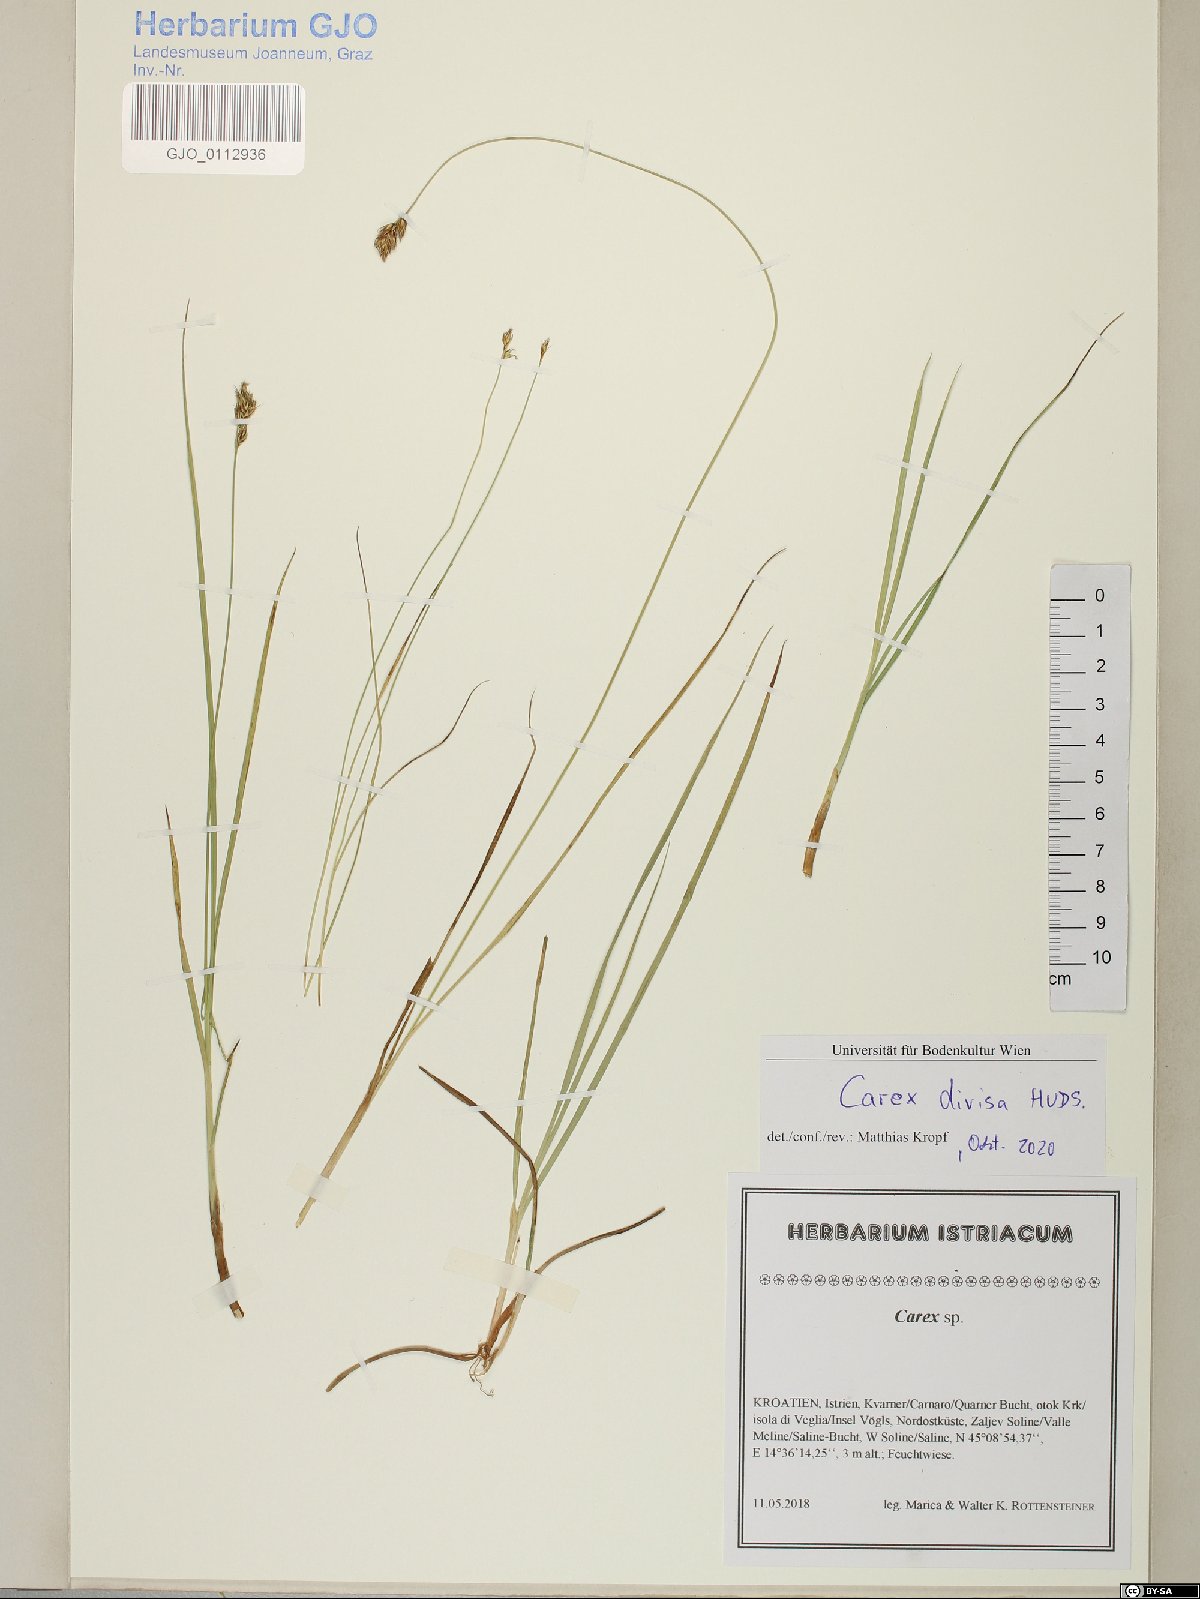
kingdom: Plantae
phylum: Tracheophyta
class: Liliopsida
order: Poales
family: Cyperaceae
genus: Carex
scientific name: Carex divisa
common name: Divided sedge
